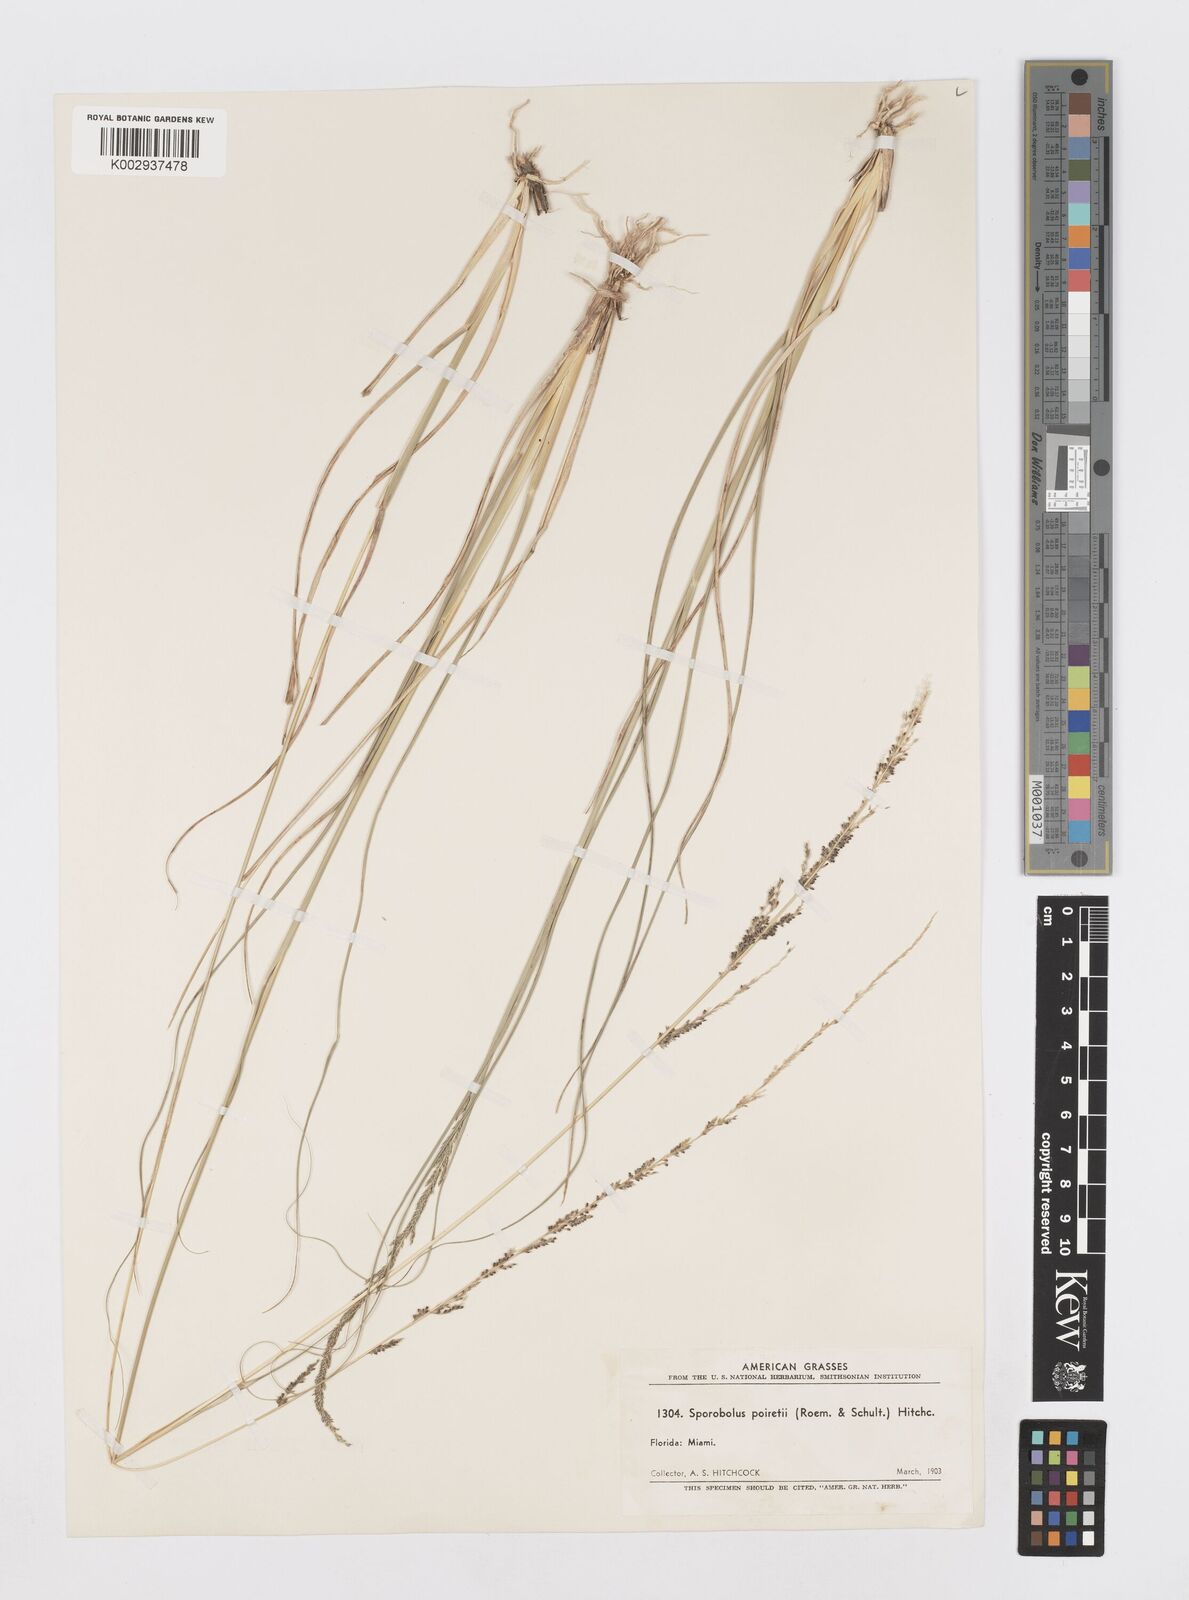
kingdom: Plantae
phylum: Tracheophyta
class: Liliopsida
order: Poales
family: Poaceae
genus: Sporobolus
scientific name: Sporobolus junceus
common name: Lizard grass
